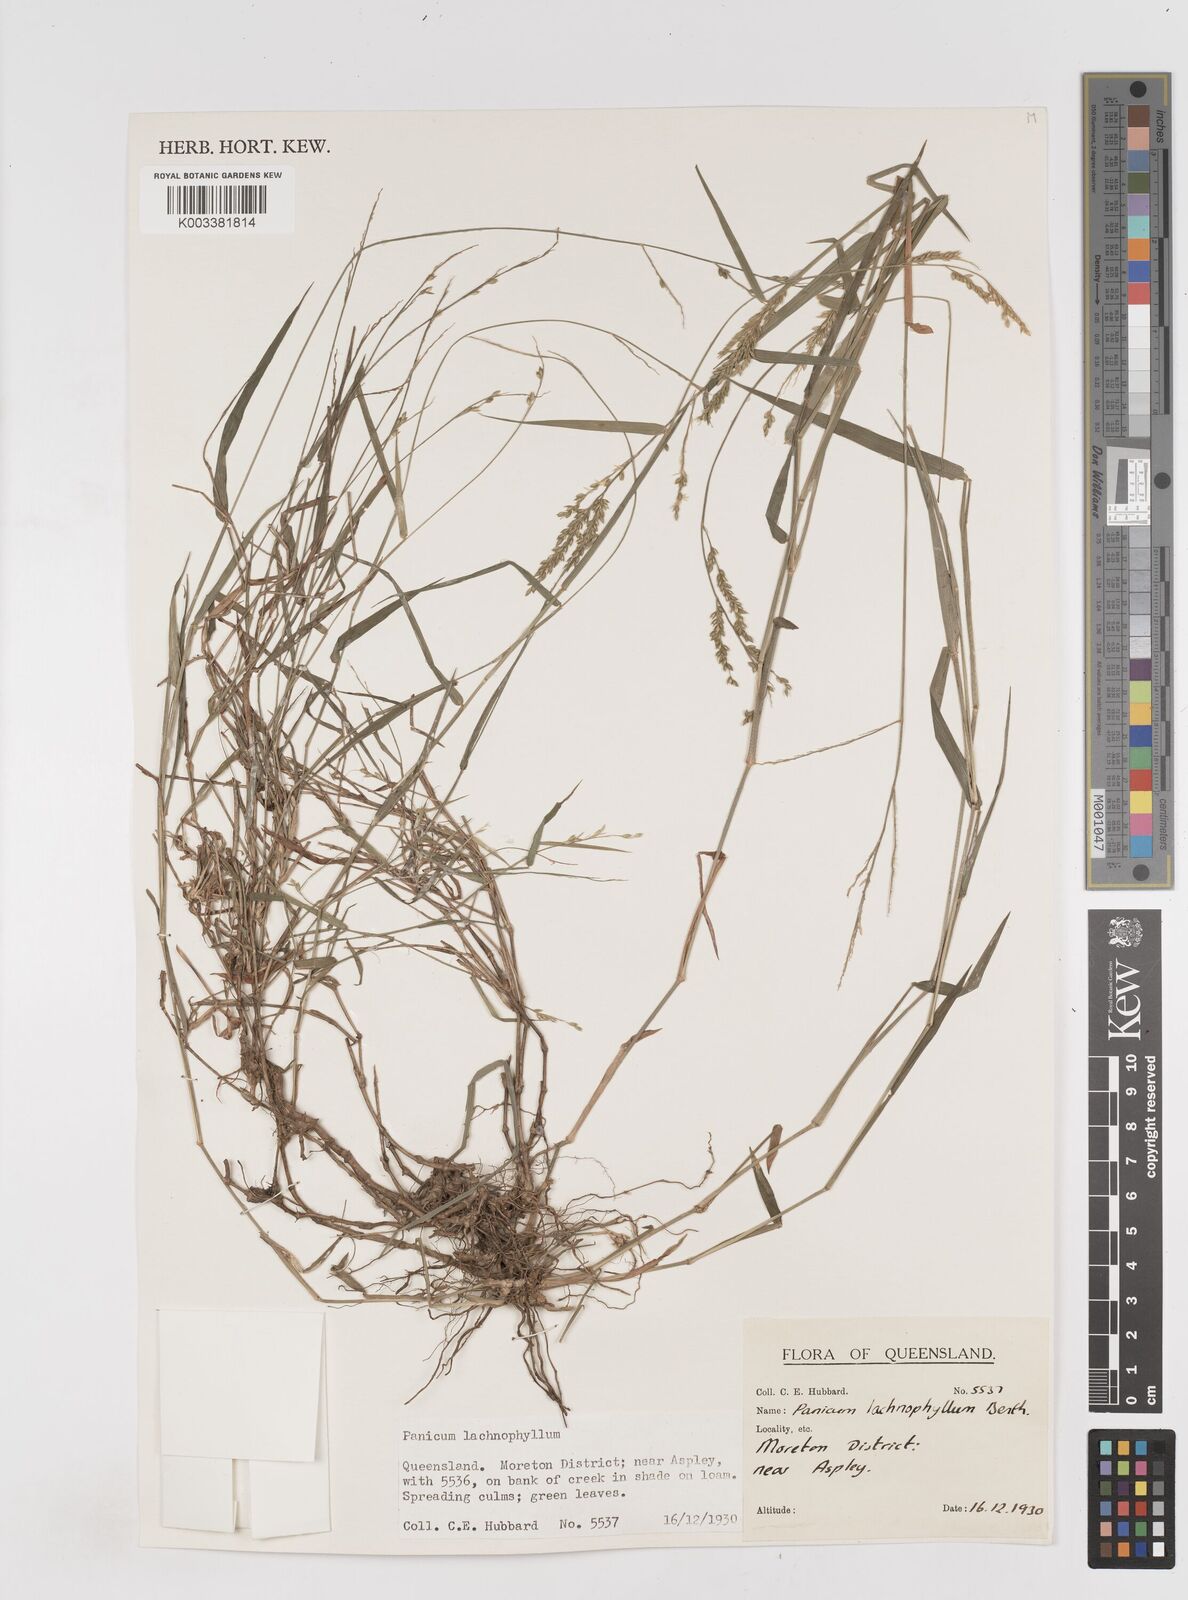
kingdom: Plantae
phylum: Tracheophyta
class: Liliopsida
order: Poales
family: Poaceae
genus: Entolasia
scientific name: Entolasia
